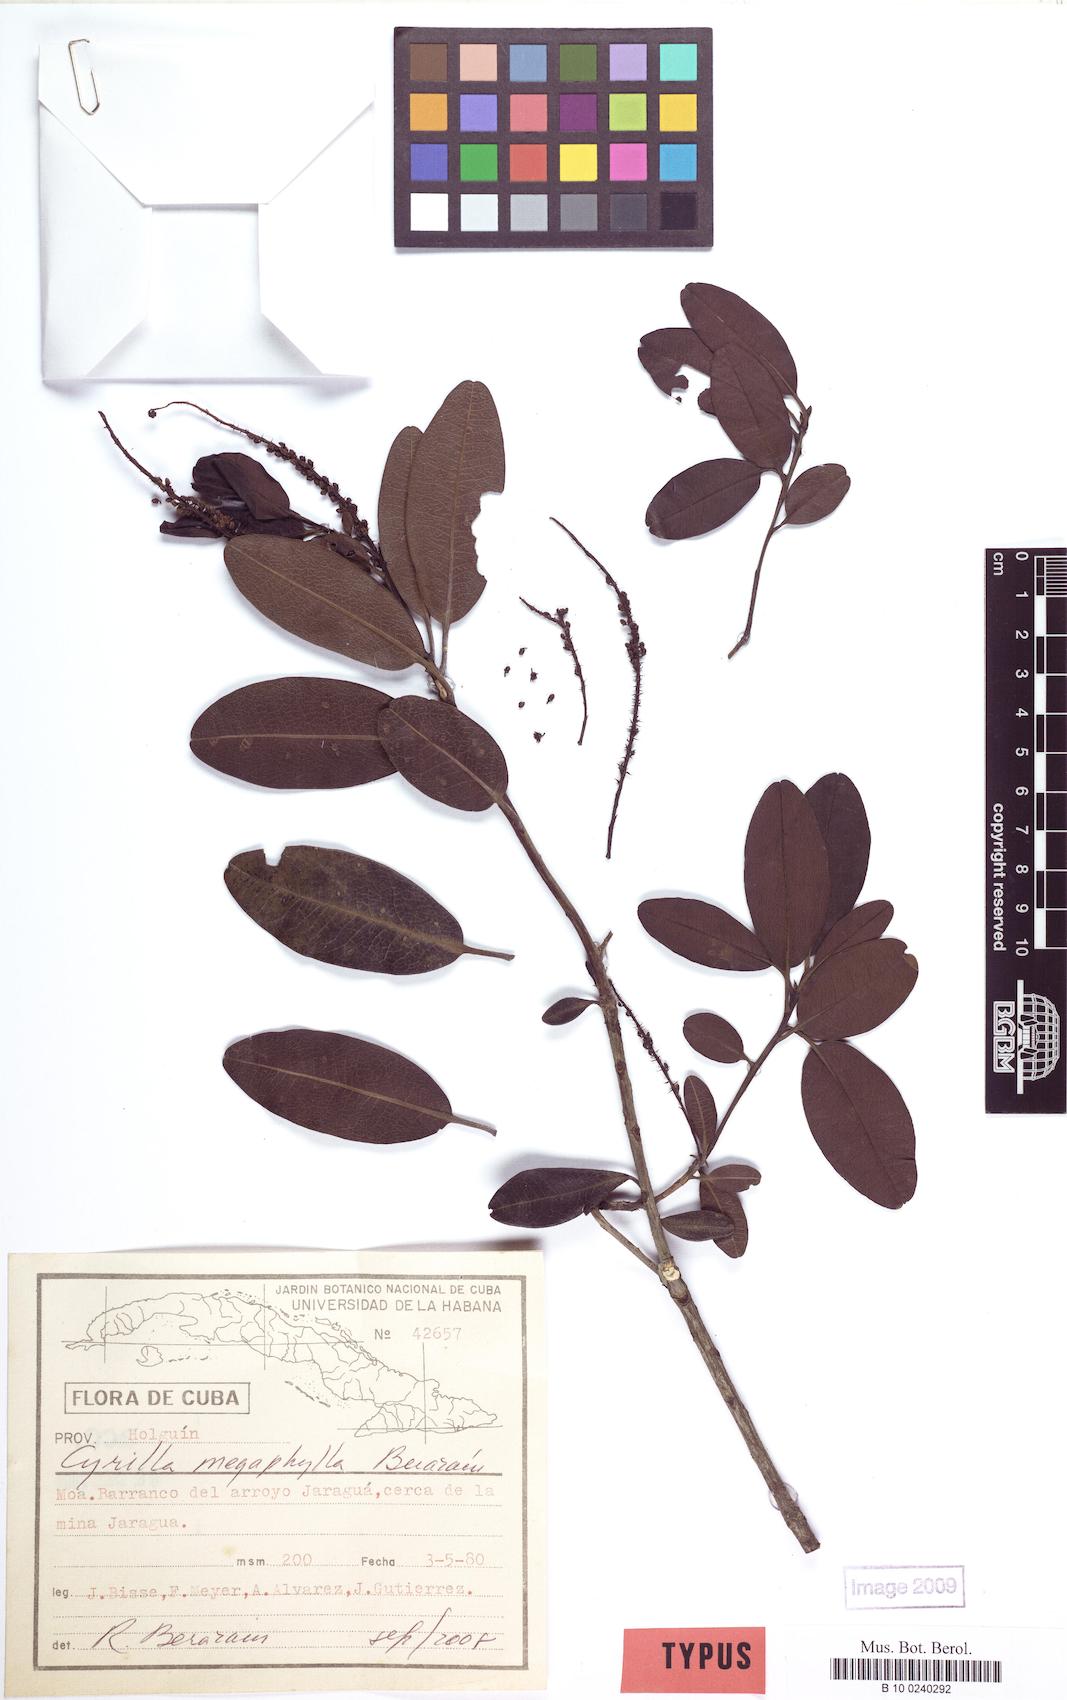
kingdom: Plantae
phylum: Tracheophyta
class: Magnoliopsida
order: Ericales
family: Cyrillaceae
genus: Cyrilla
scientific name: Cyrilla megaphylla
